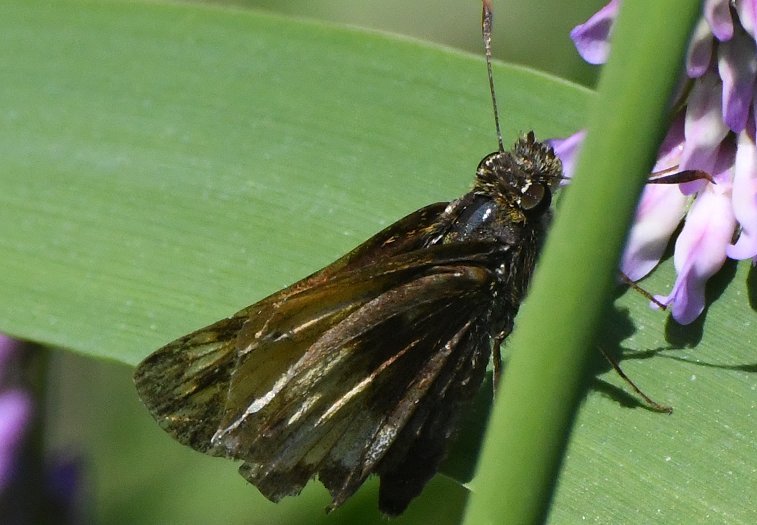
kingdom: Animalia
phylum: Arthropoda
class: Insecta
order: Lepidoptera
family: Hesperiidae
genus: Lon
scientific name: Lon hobomok
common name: Hobomok Skipper
